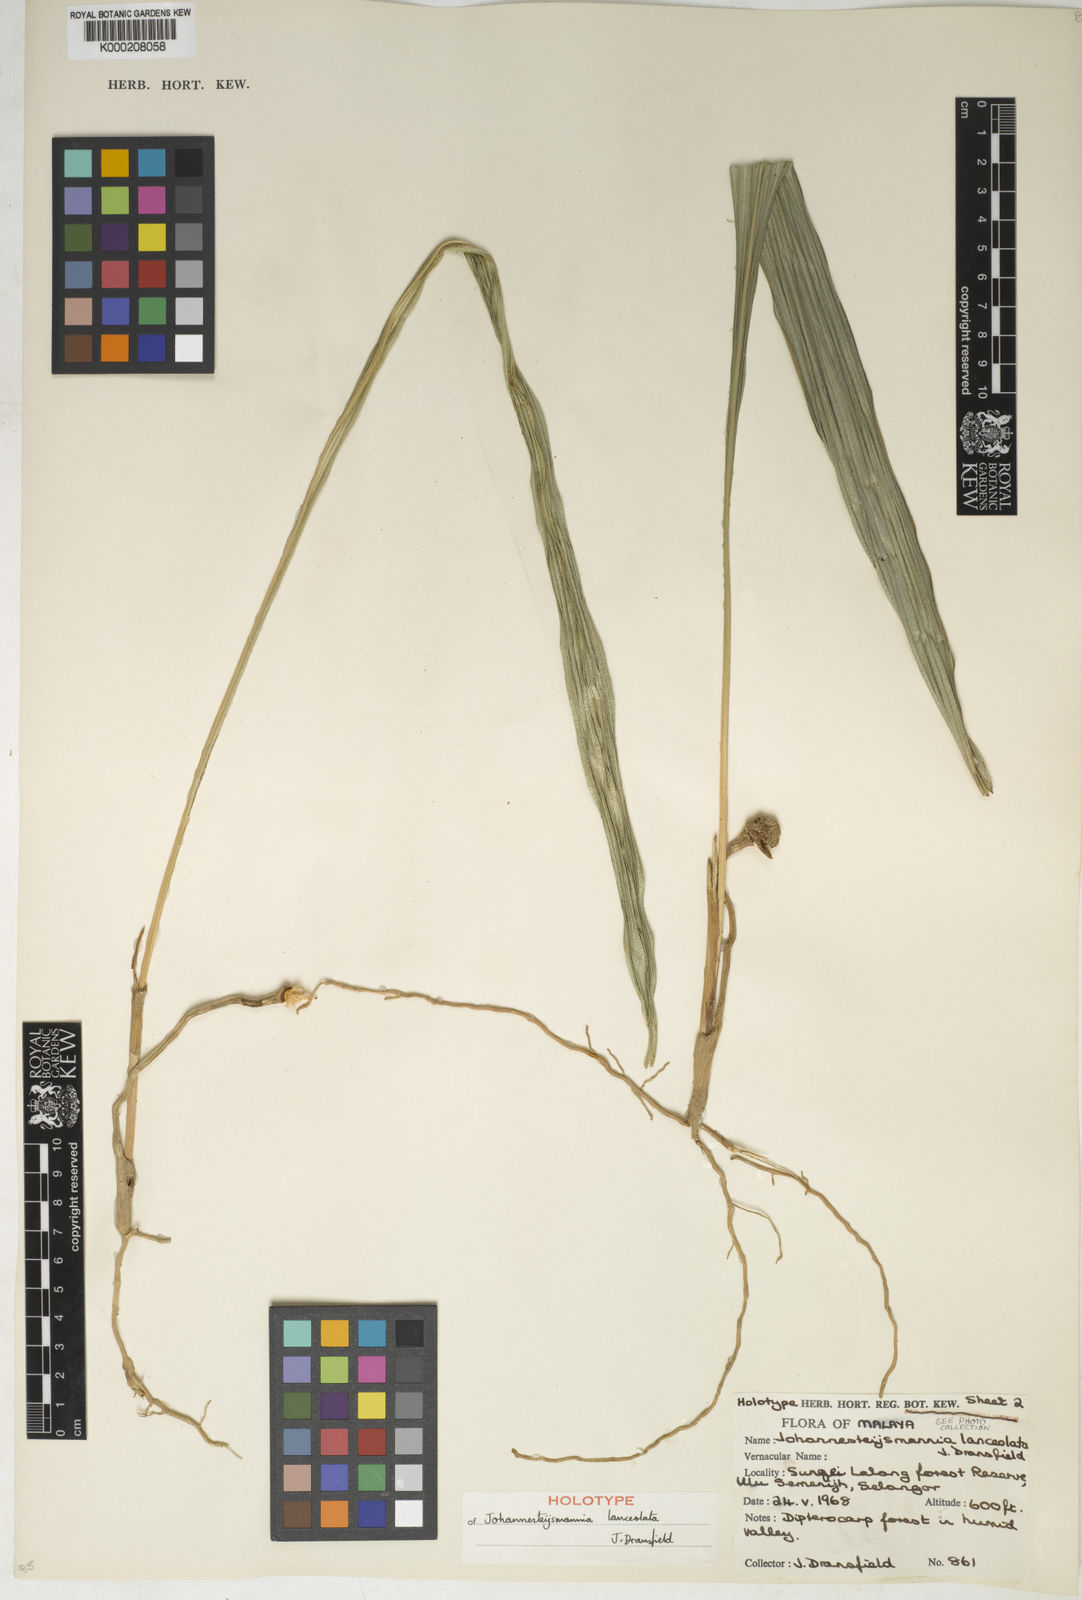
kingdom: Plantae
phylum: Tracheophyta
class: Liliopsida
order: Arecales
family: Arecaceae
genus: Johannesteijsmannia
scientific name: Johannesteijsmannia lanceolata
